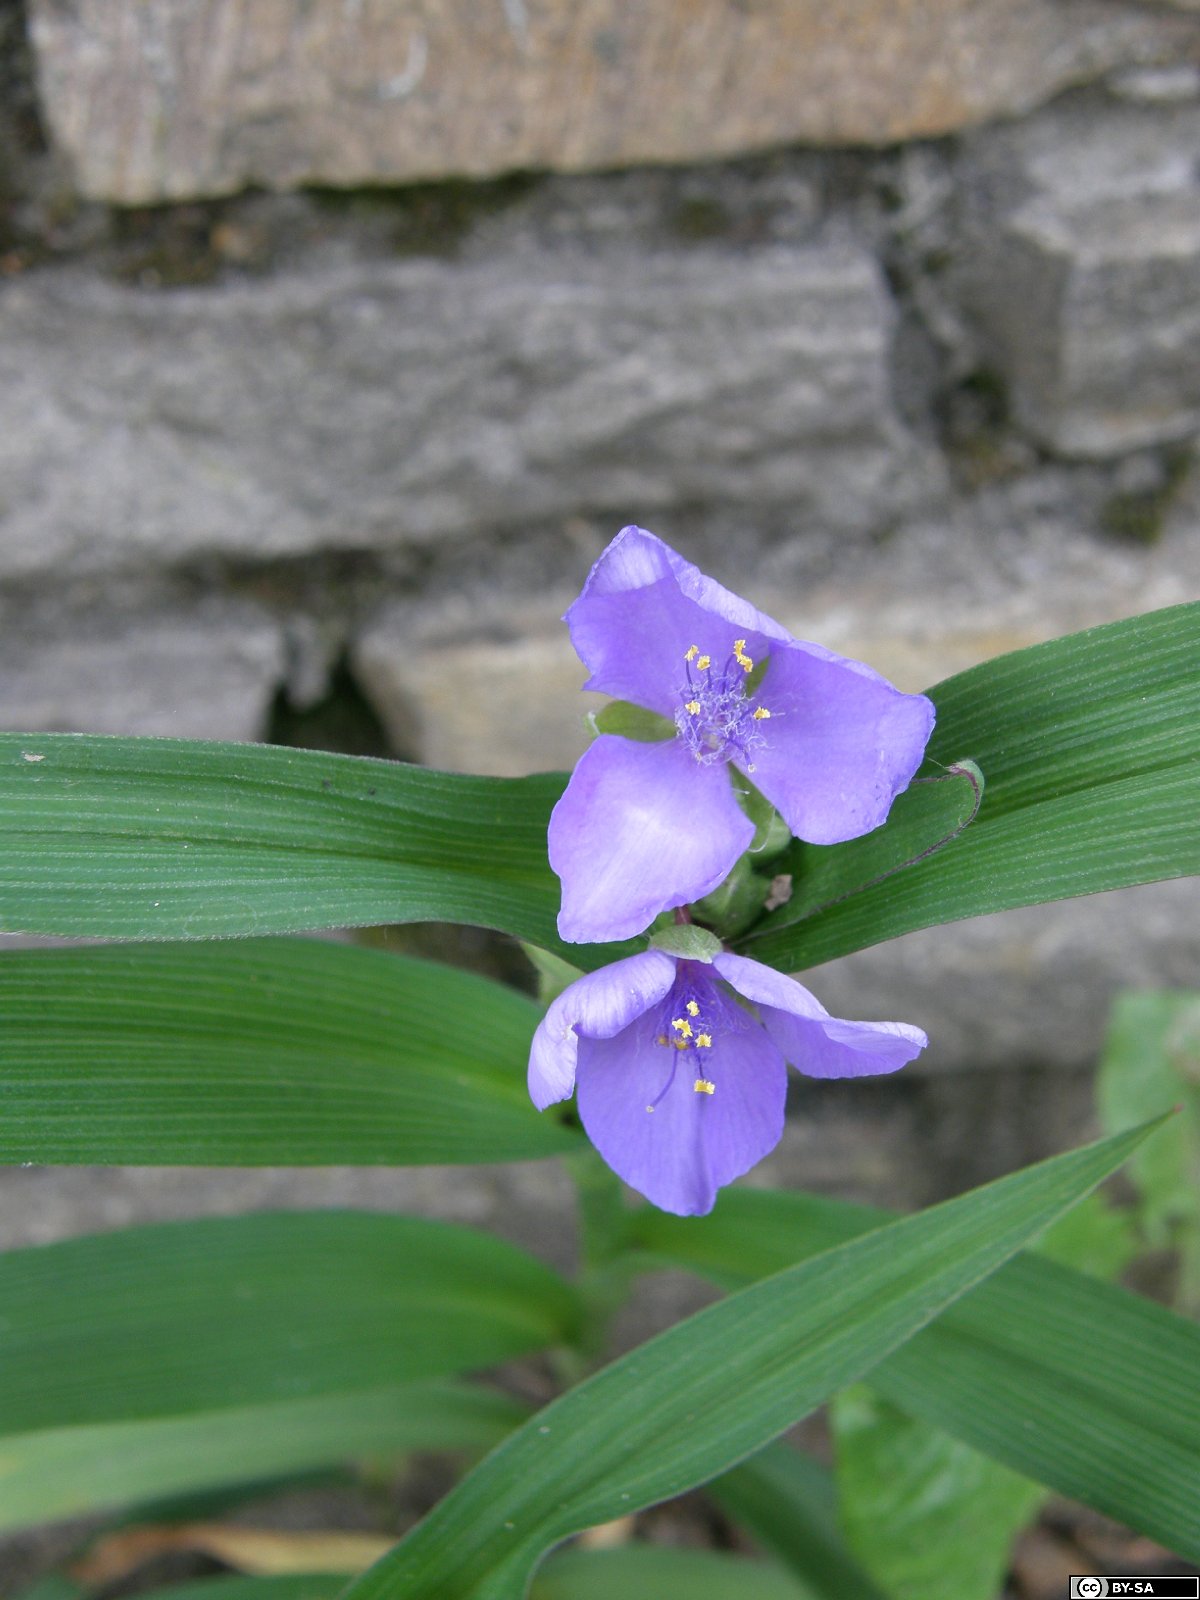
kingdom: Plantae
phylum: Tracheophyta
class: Liliopsida
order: Commelinales
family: Commelinaceae
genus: Tradescantia
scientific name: Tradescantia andersoniana
